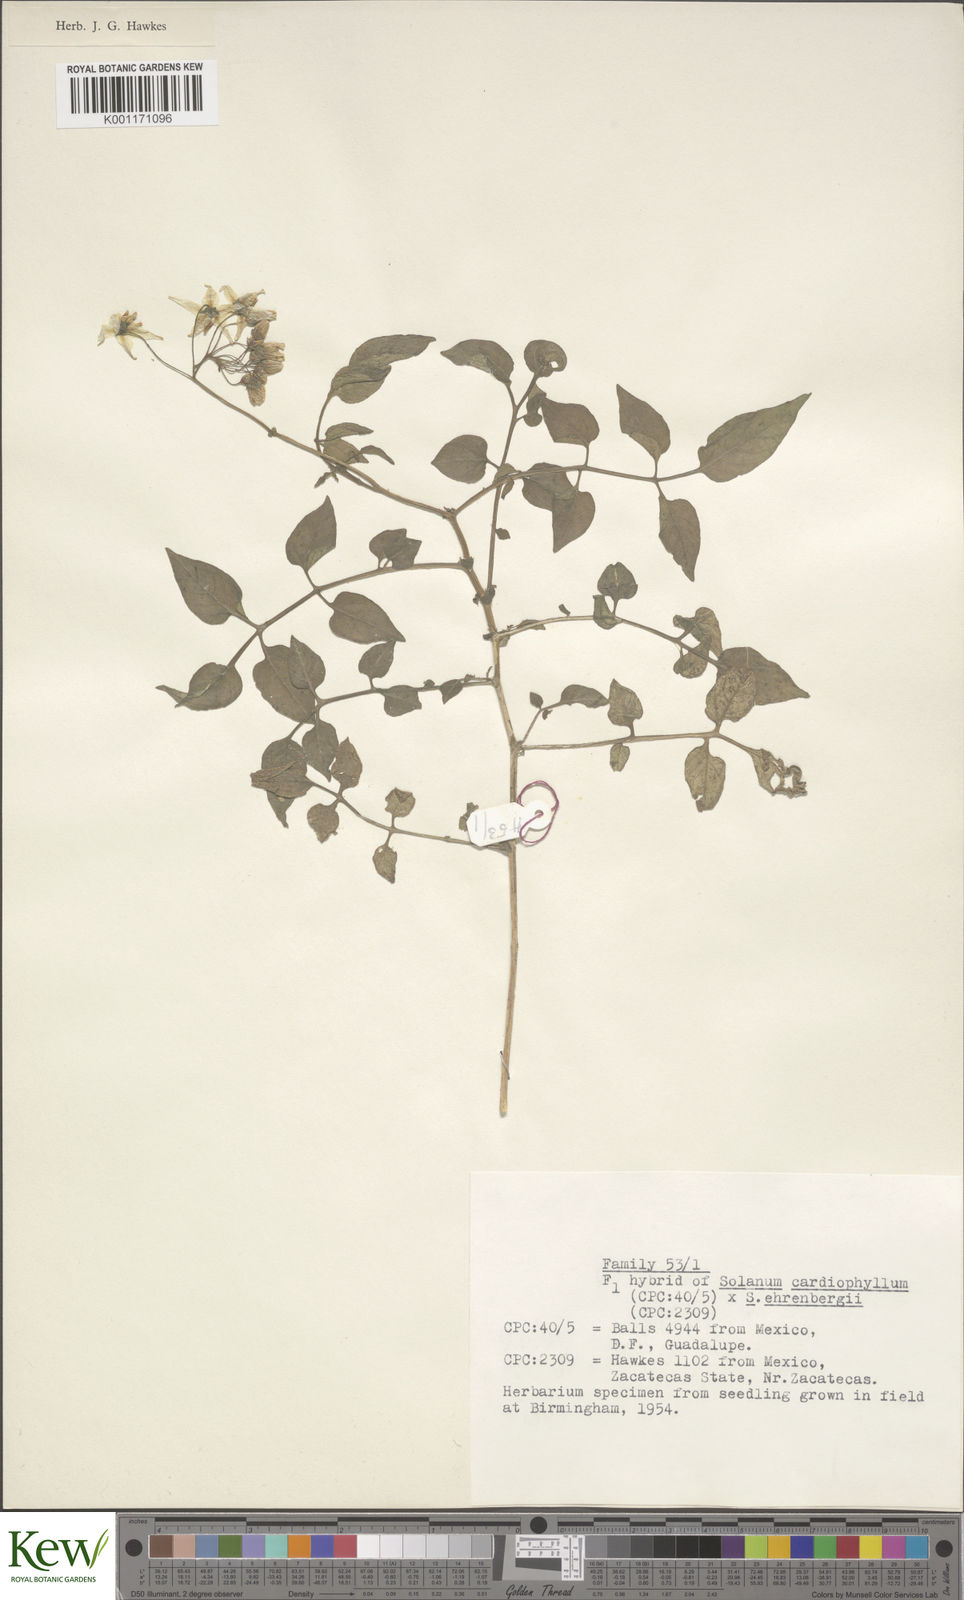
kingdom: Plantae
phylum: Tracheophyta
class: Magnoliopsida
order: Solanales
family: Solanaceae
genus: Solanum
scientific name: Solanum cardiophyllum
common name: Heartleaf horsenettle
